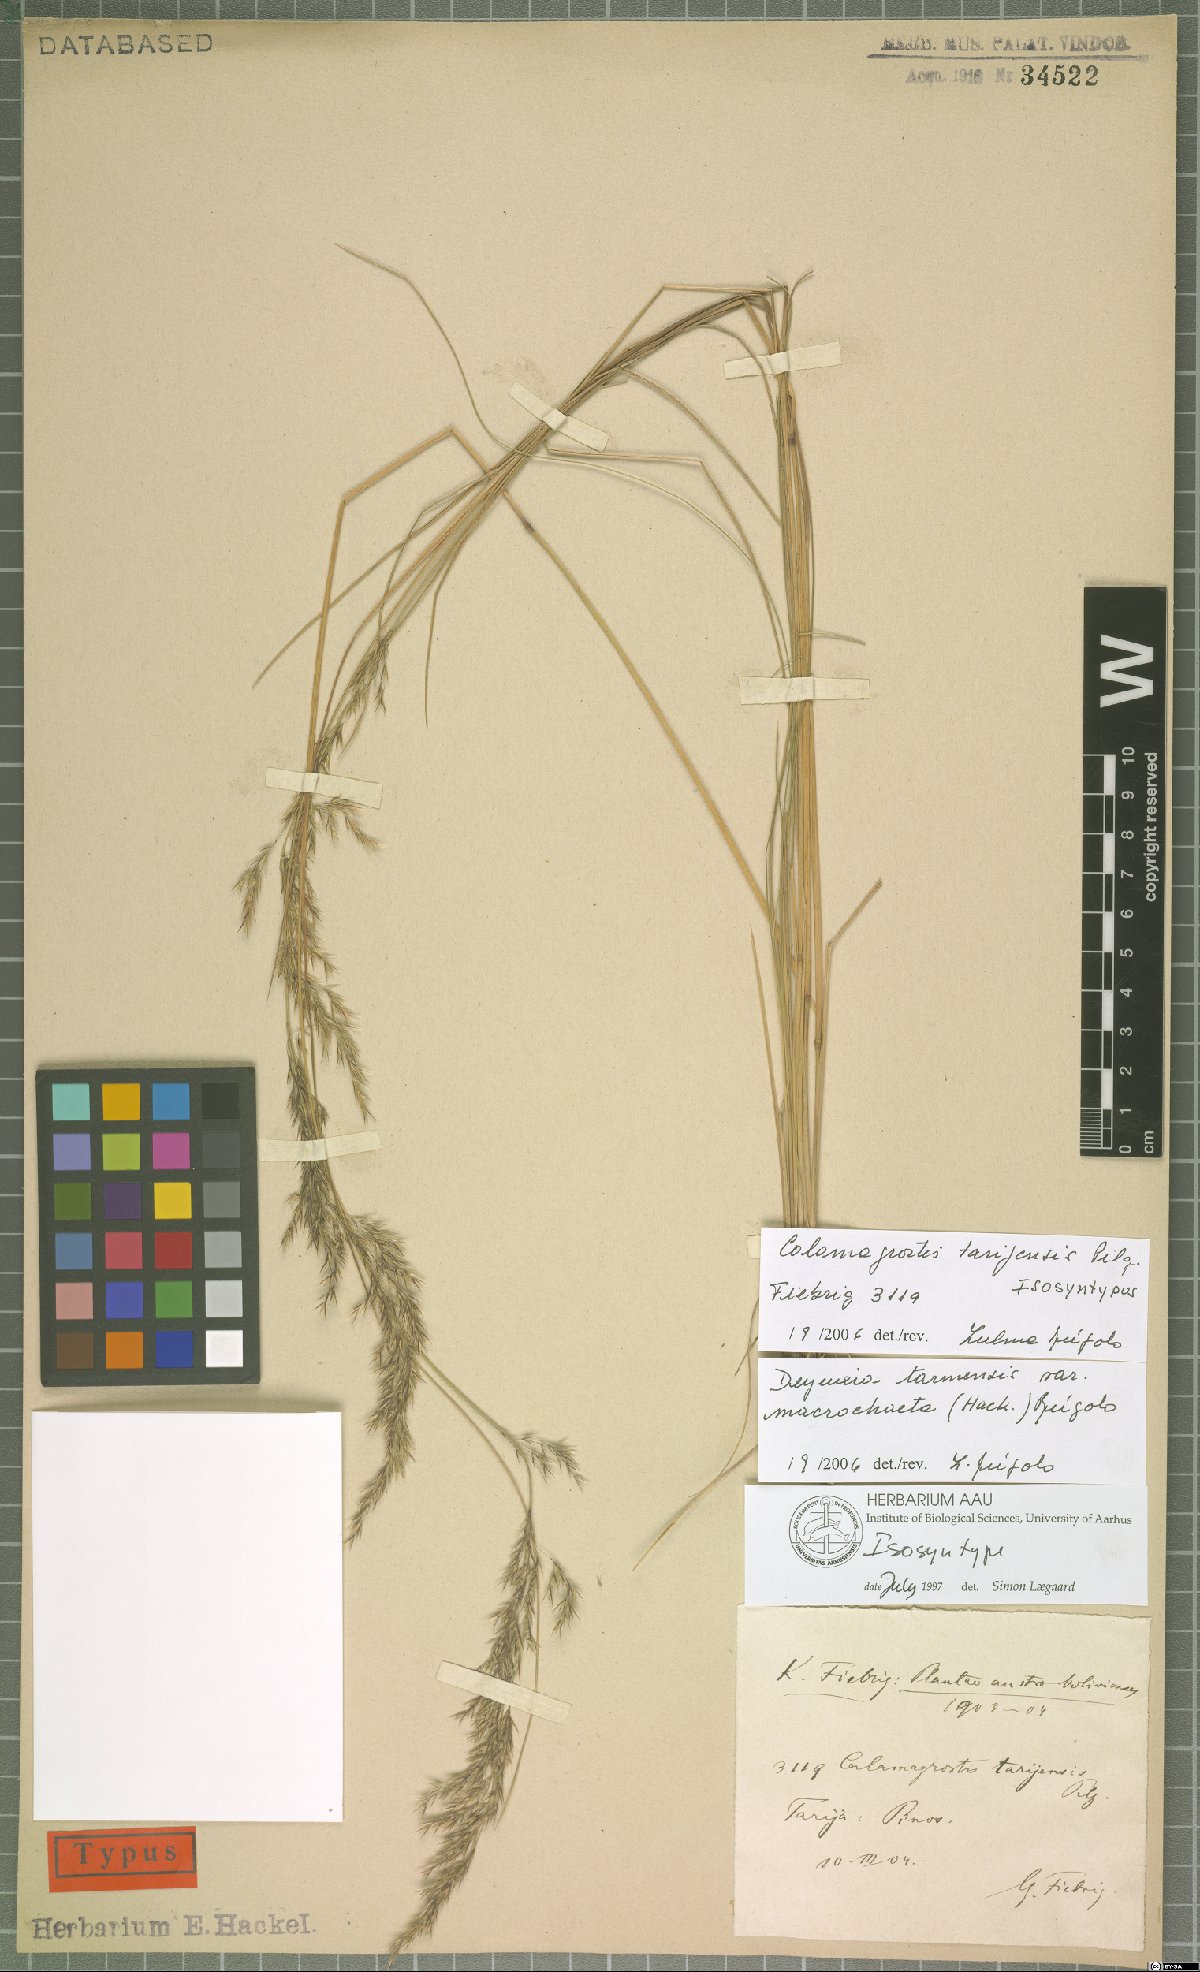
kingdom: Plantae
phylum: Tracheophyta
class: Liliopsida
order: Poales
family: Poaceae
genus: Cinnagrostis
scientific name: Cinnagrostis tarmensis
